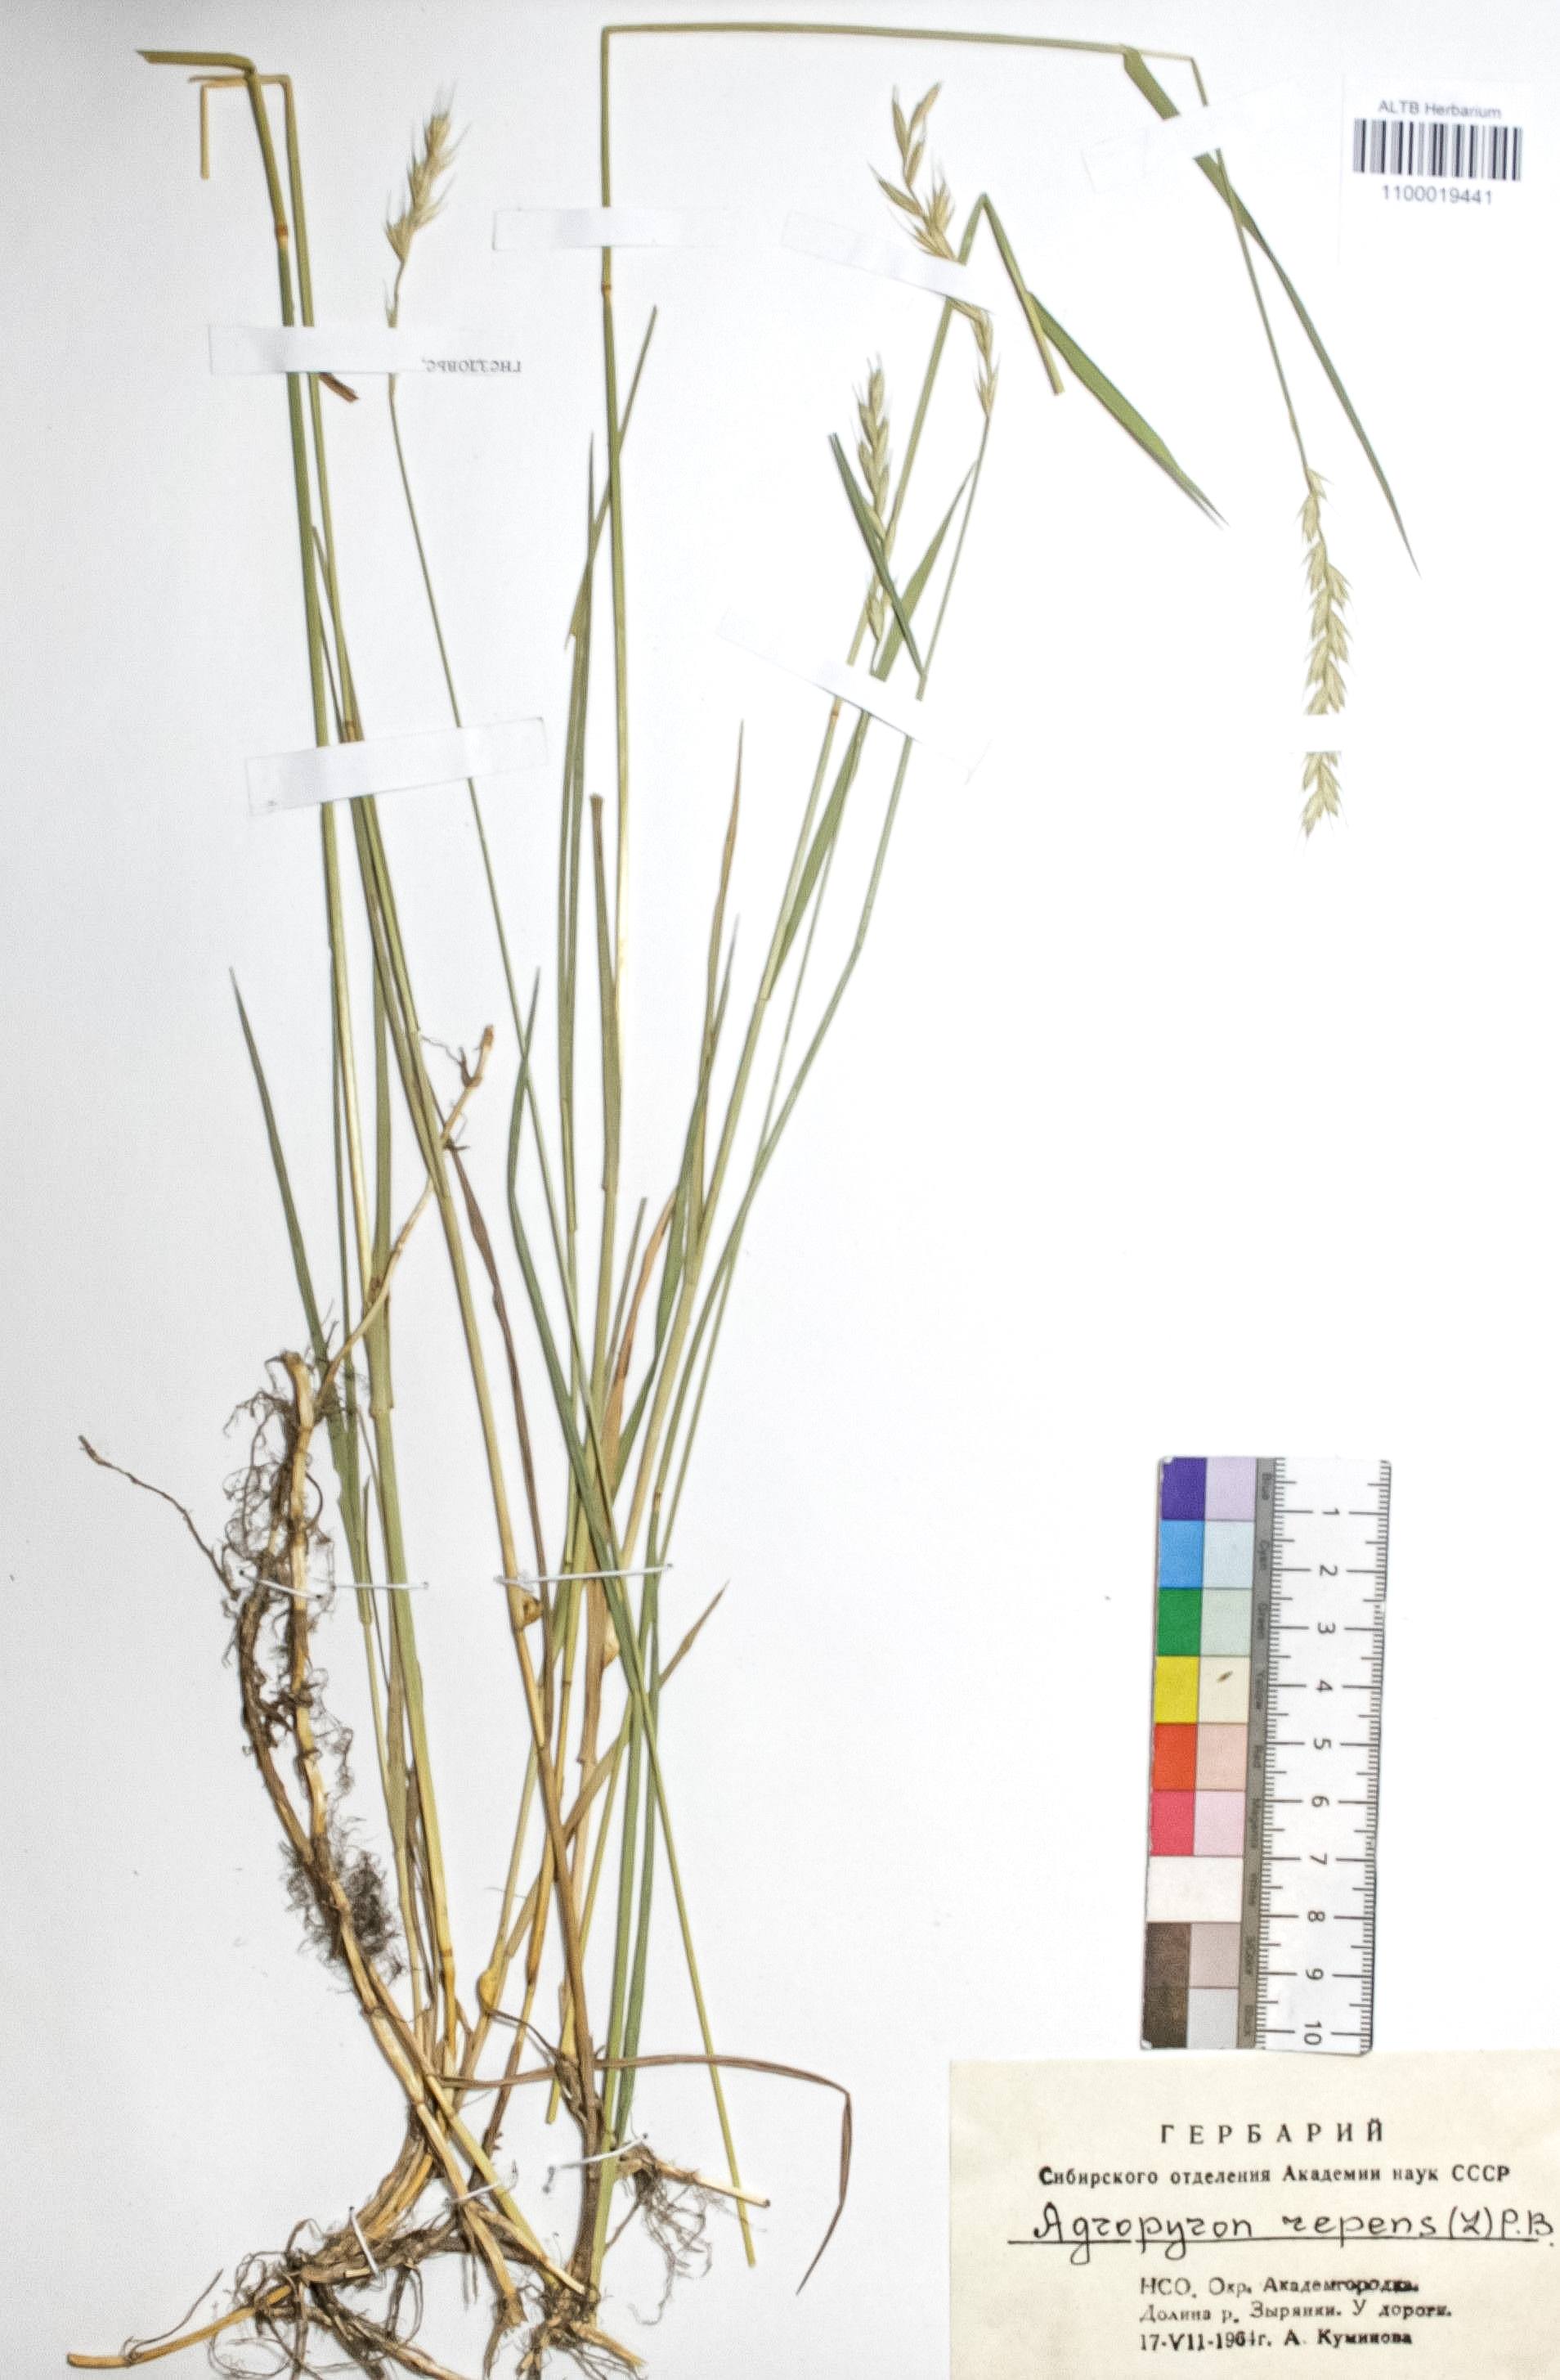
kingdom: Plantae
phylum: Tracheophyta
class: Liliopsida
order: Poales
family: Poaceae
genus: Elymus
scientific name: Elymus repens
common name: Quackgrass
